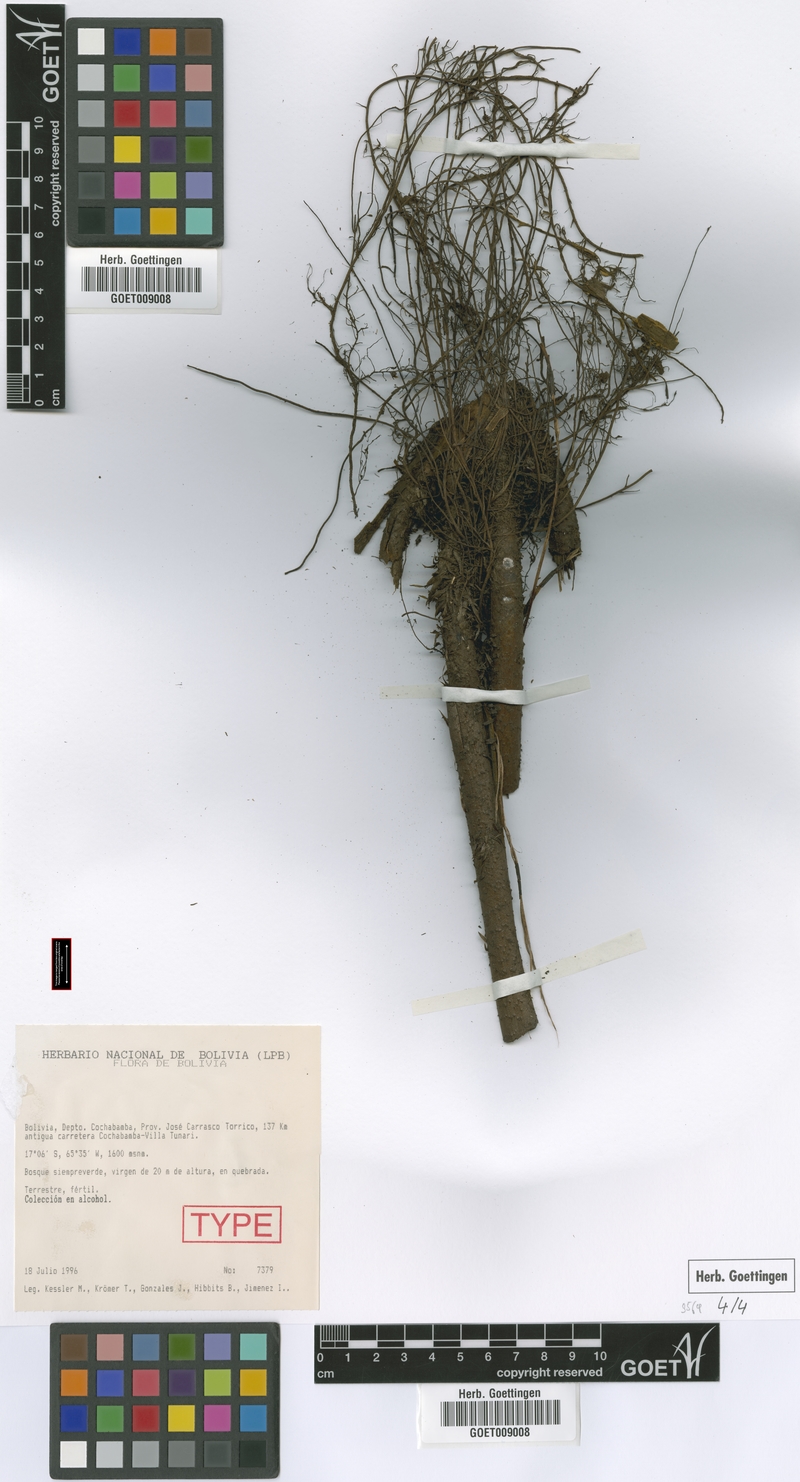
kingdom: Plantae
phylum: Tracheophyta
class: Polypodiopsida
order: Polypodiales
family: Dryopteridaceae
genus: Megalastrum
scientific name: Megalastrum aureisquama
